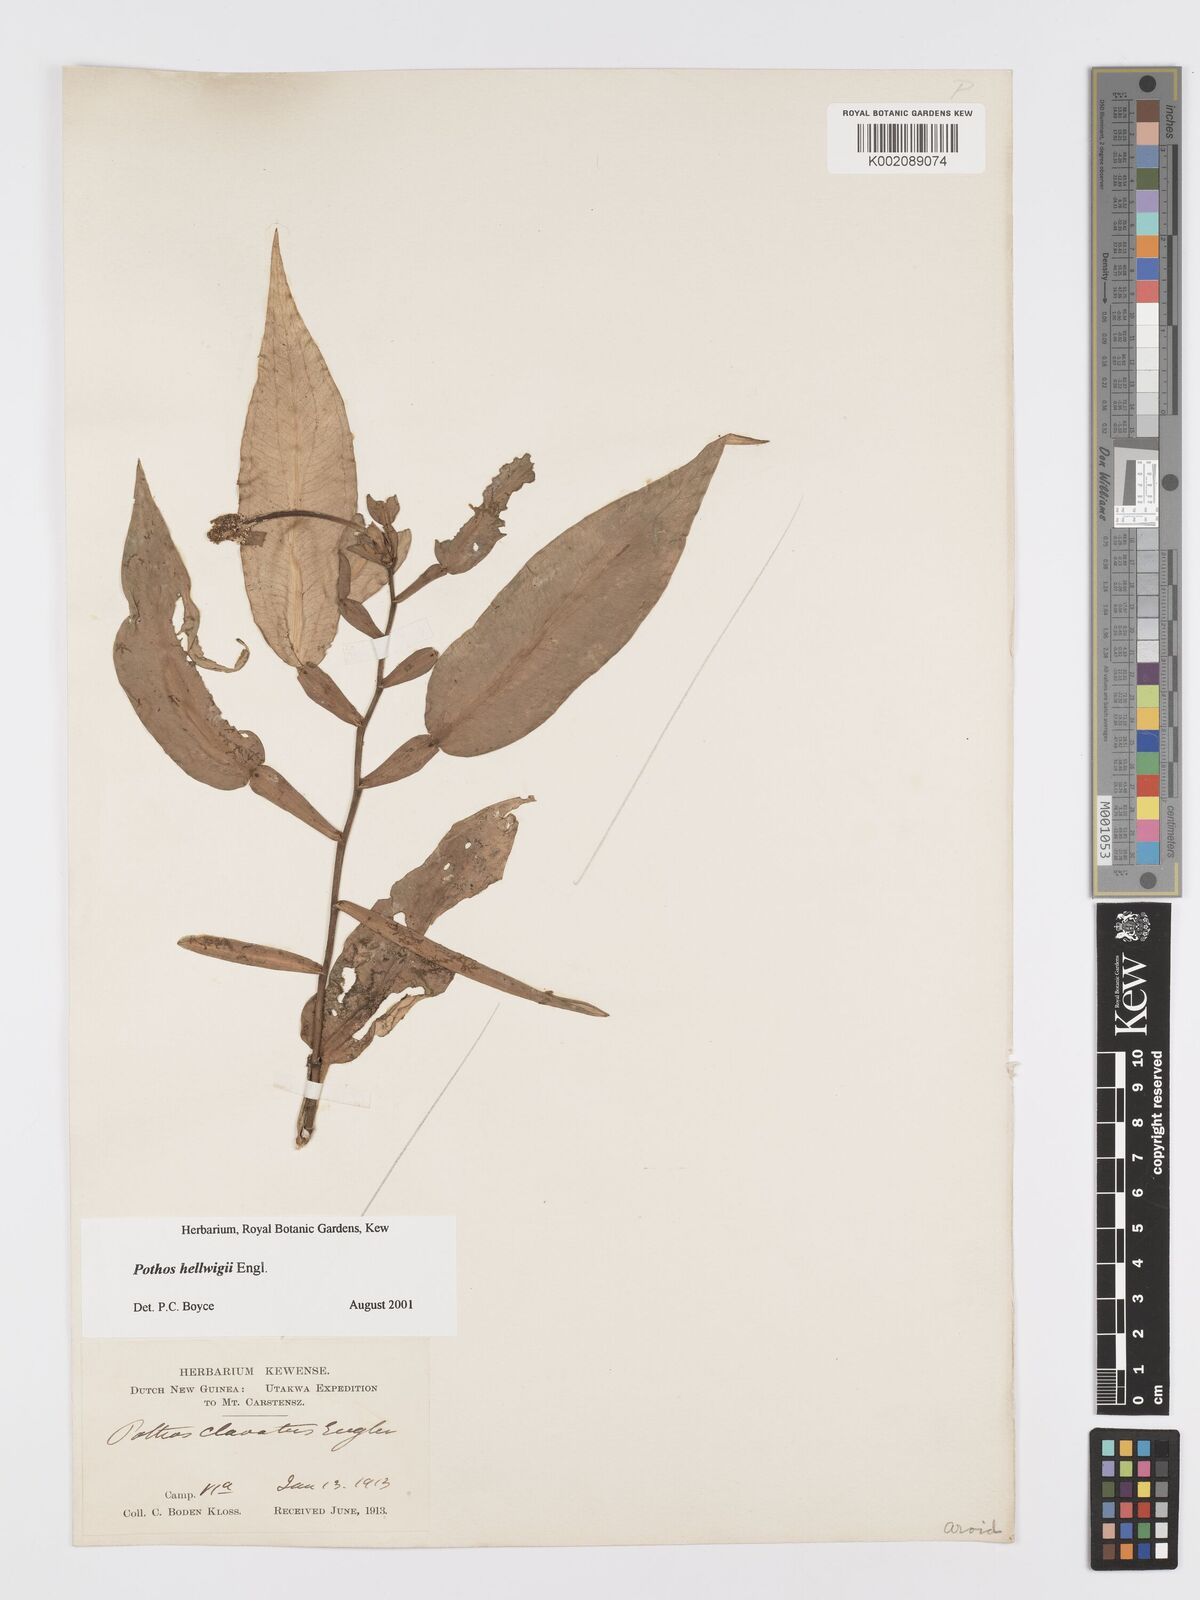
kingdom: Plantae
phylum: Tracheophyta
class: Liliopsida
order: Alismatales
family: Araceae
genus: Pothos
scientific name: Pothos hellwigii
